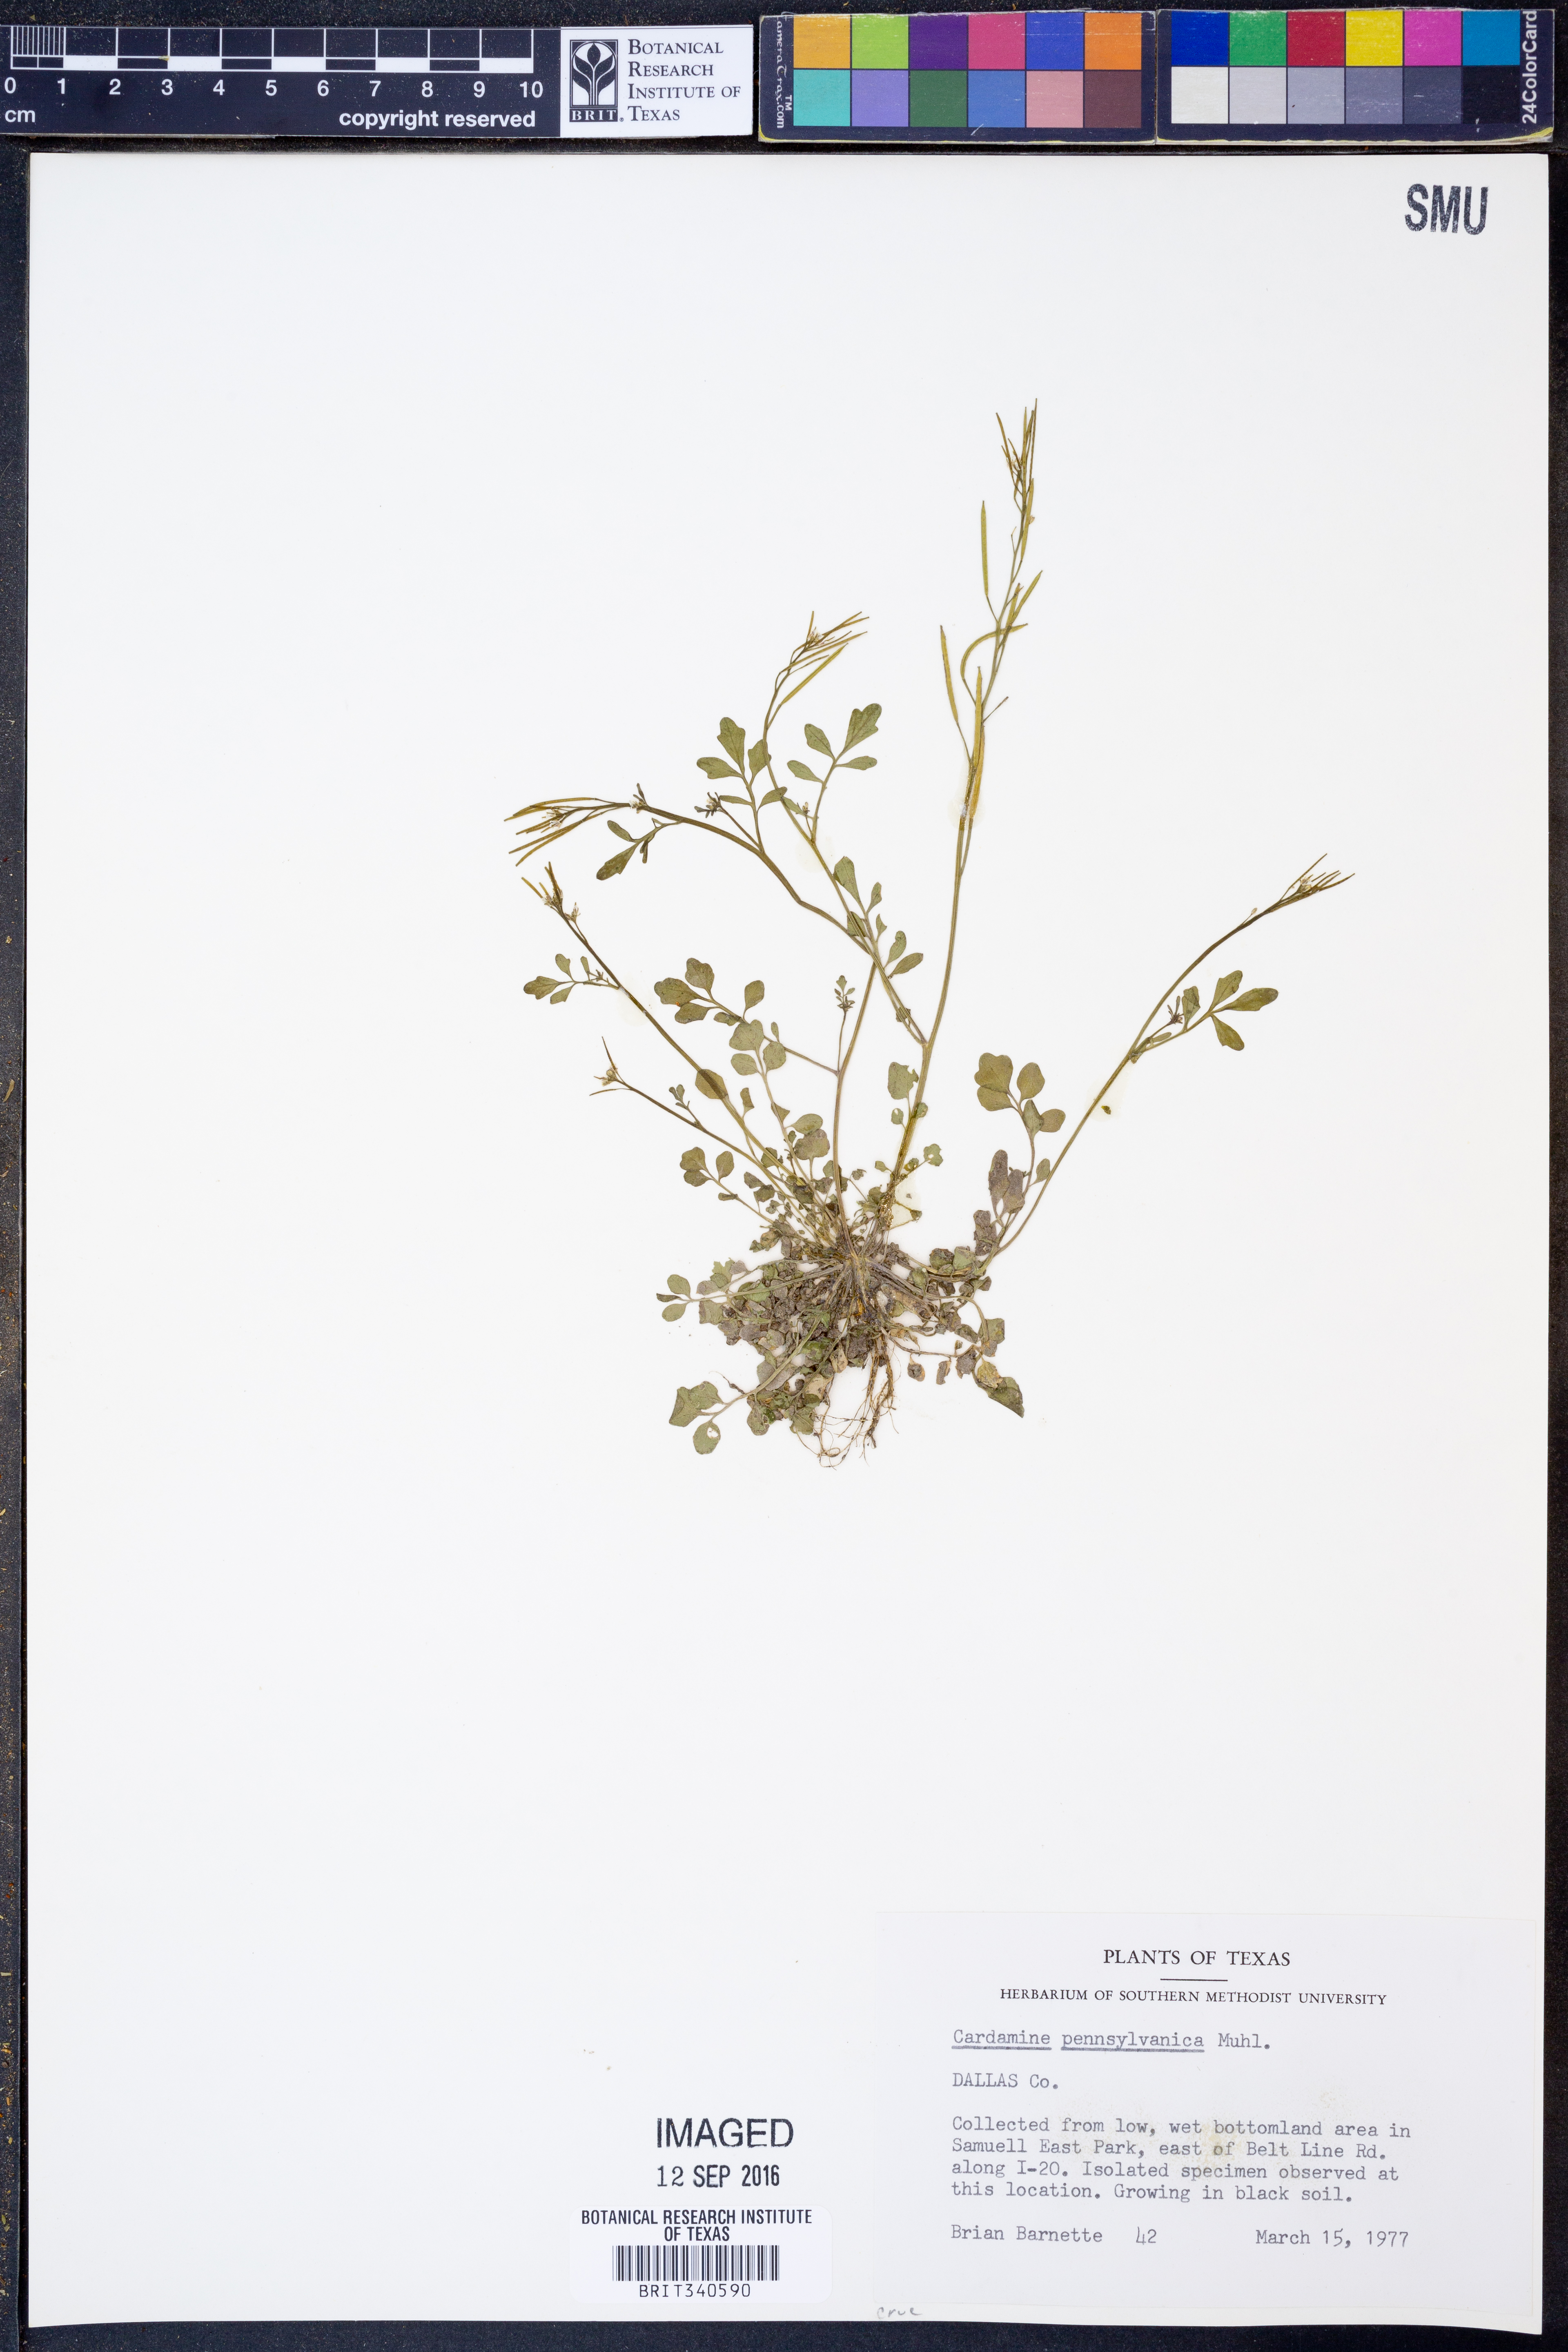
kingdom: Plantae
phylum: Tracheophyta
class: Magnoliopsida
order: Brassicales
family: Brassicaceae
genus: Cardamine
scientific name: Cardamine pensylvanica
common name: Pennsylvania bittercress
